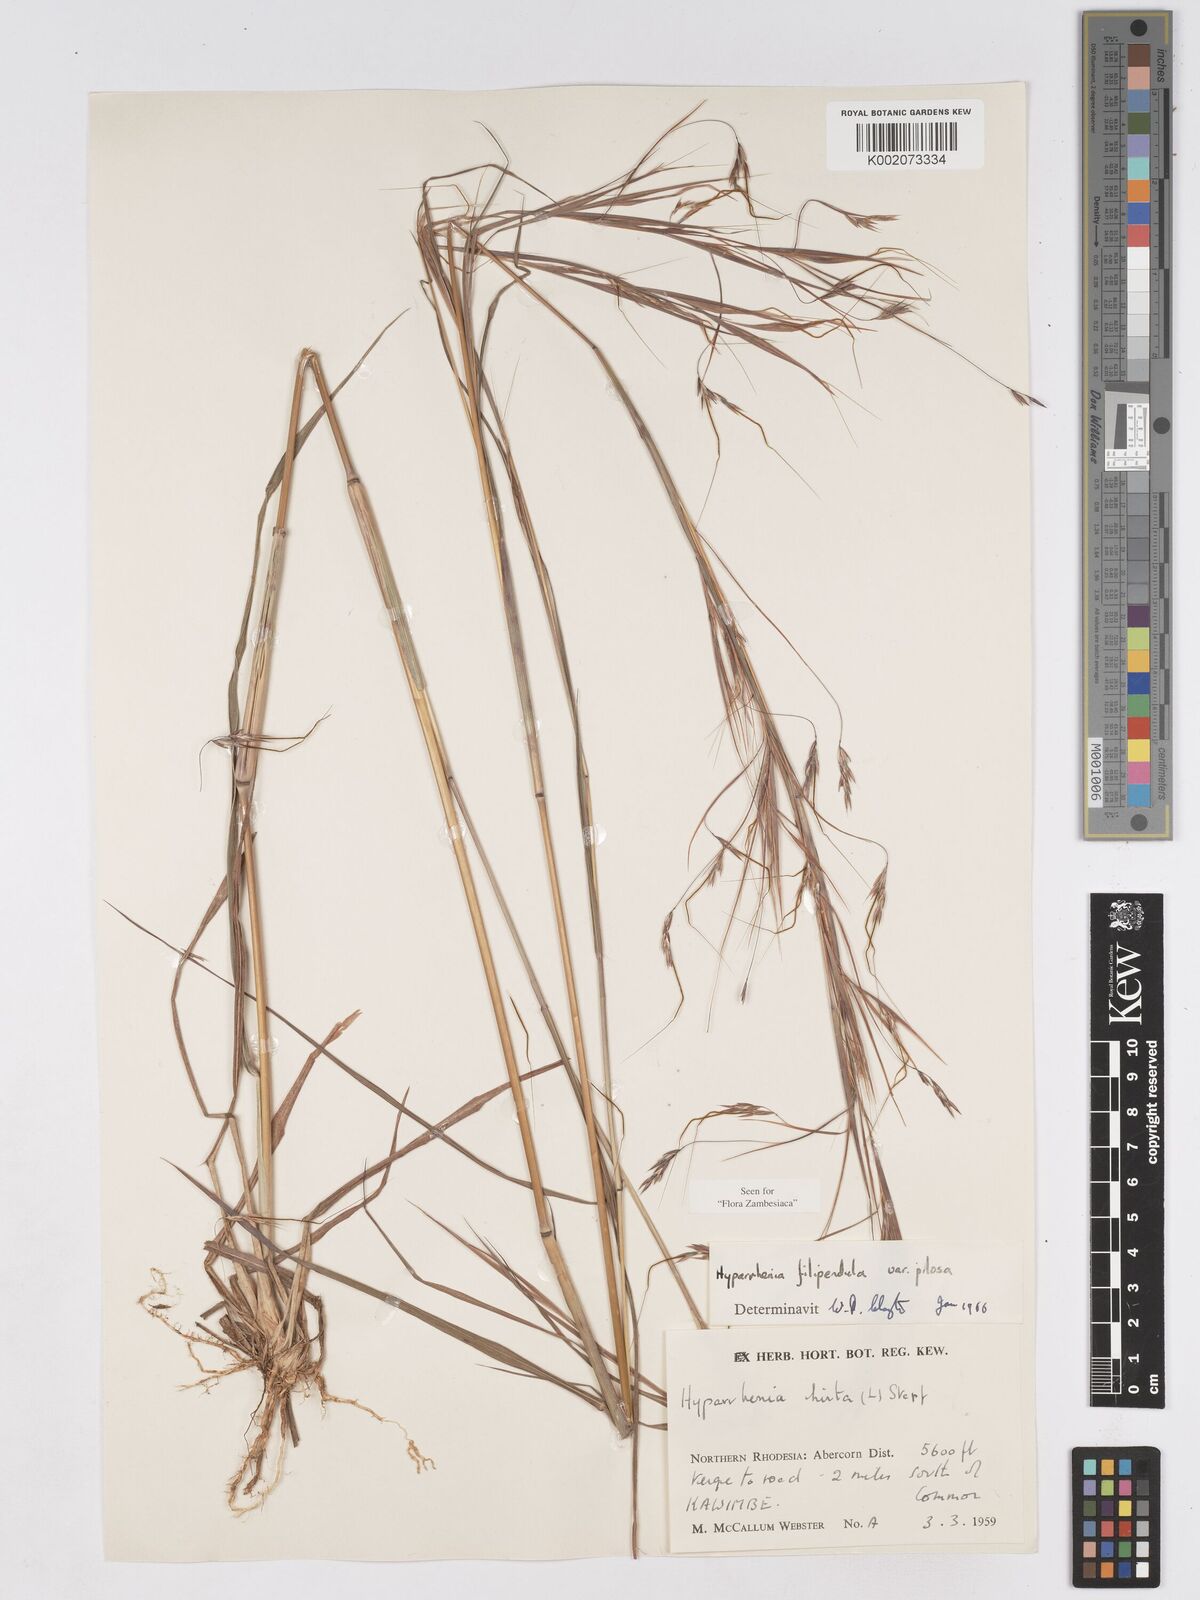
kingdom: Plantae
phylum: Tracheophyta
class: Liliopsida
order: Poales
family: Poaceae
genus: Hyparrhenia
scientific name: Hyparrhenia filipendula
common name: Tambookie grass
